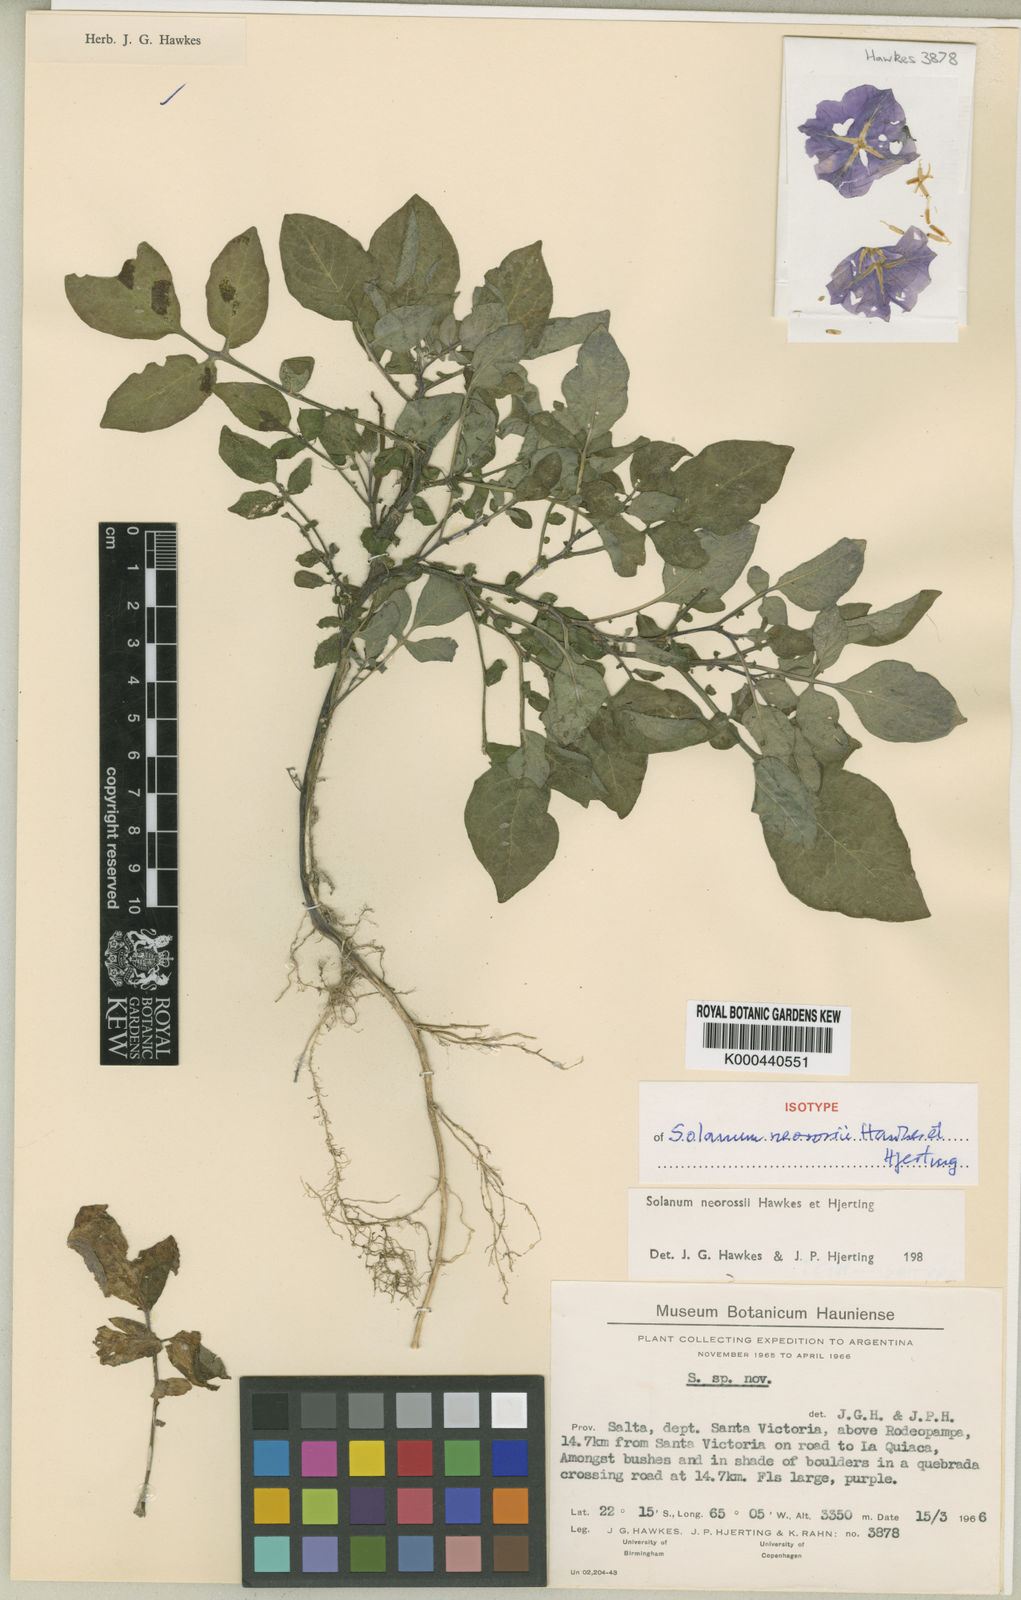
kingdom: Plantae
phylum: Tracheophyta
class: Magnoliopsida
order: Solanales
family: Solanaceae
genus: Solanum
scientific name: Solanum neorossii
